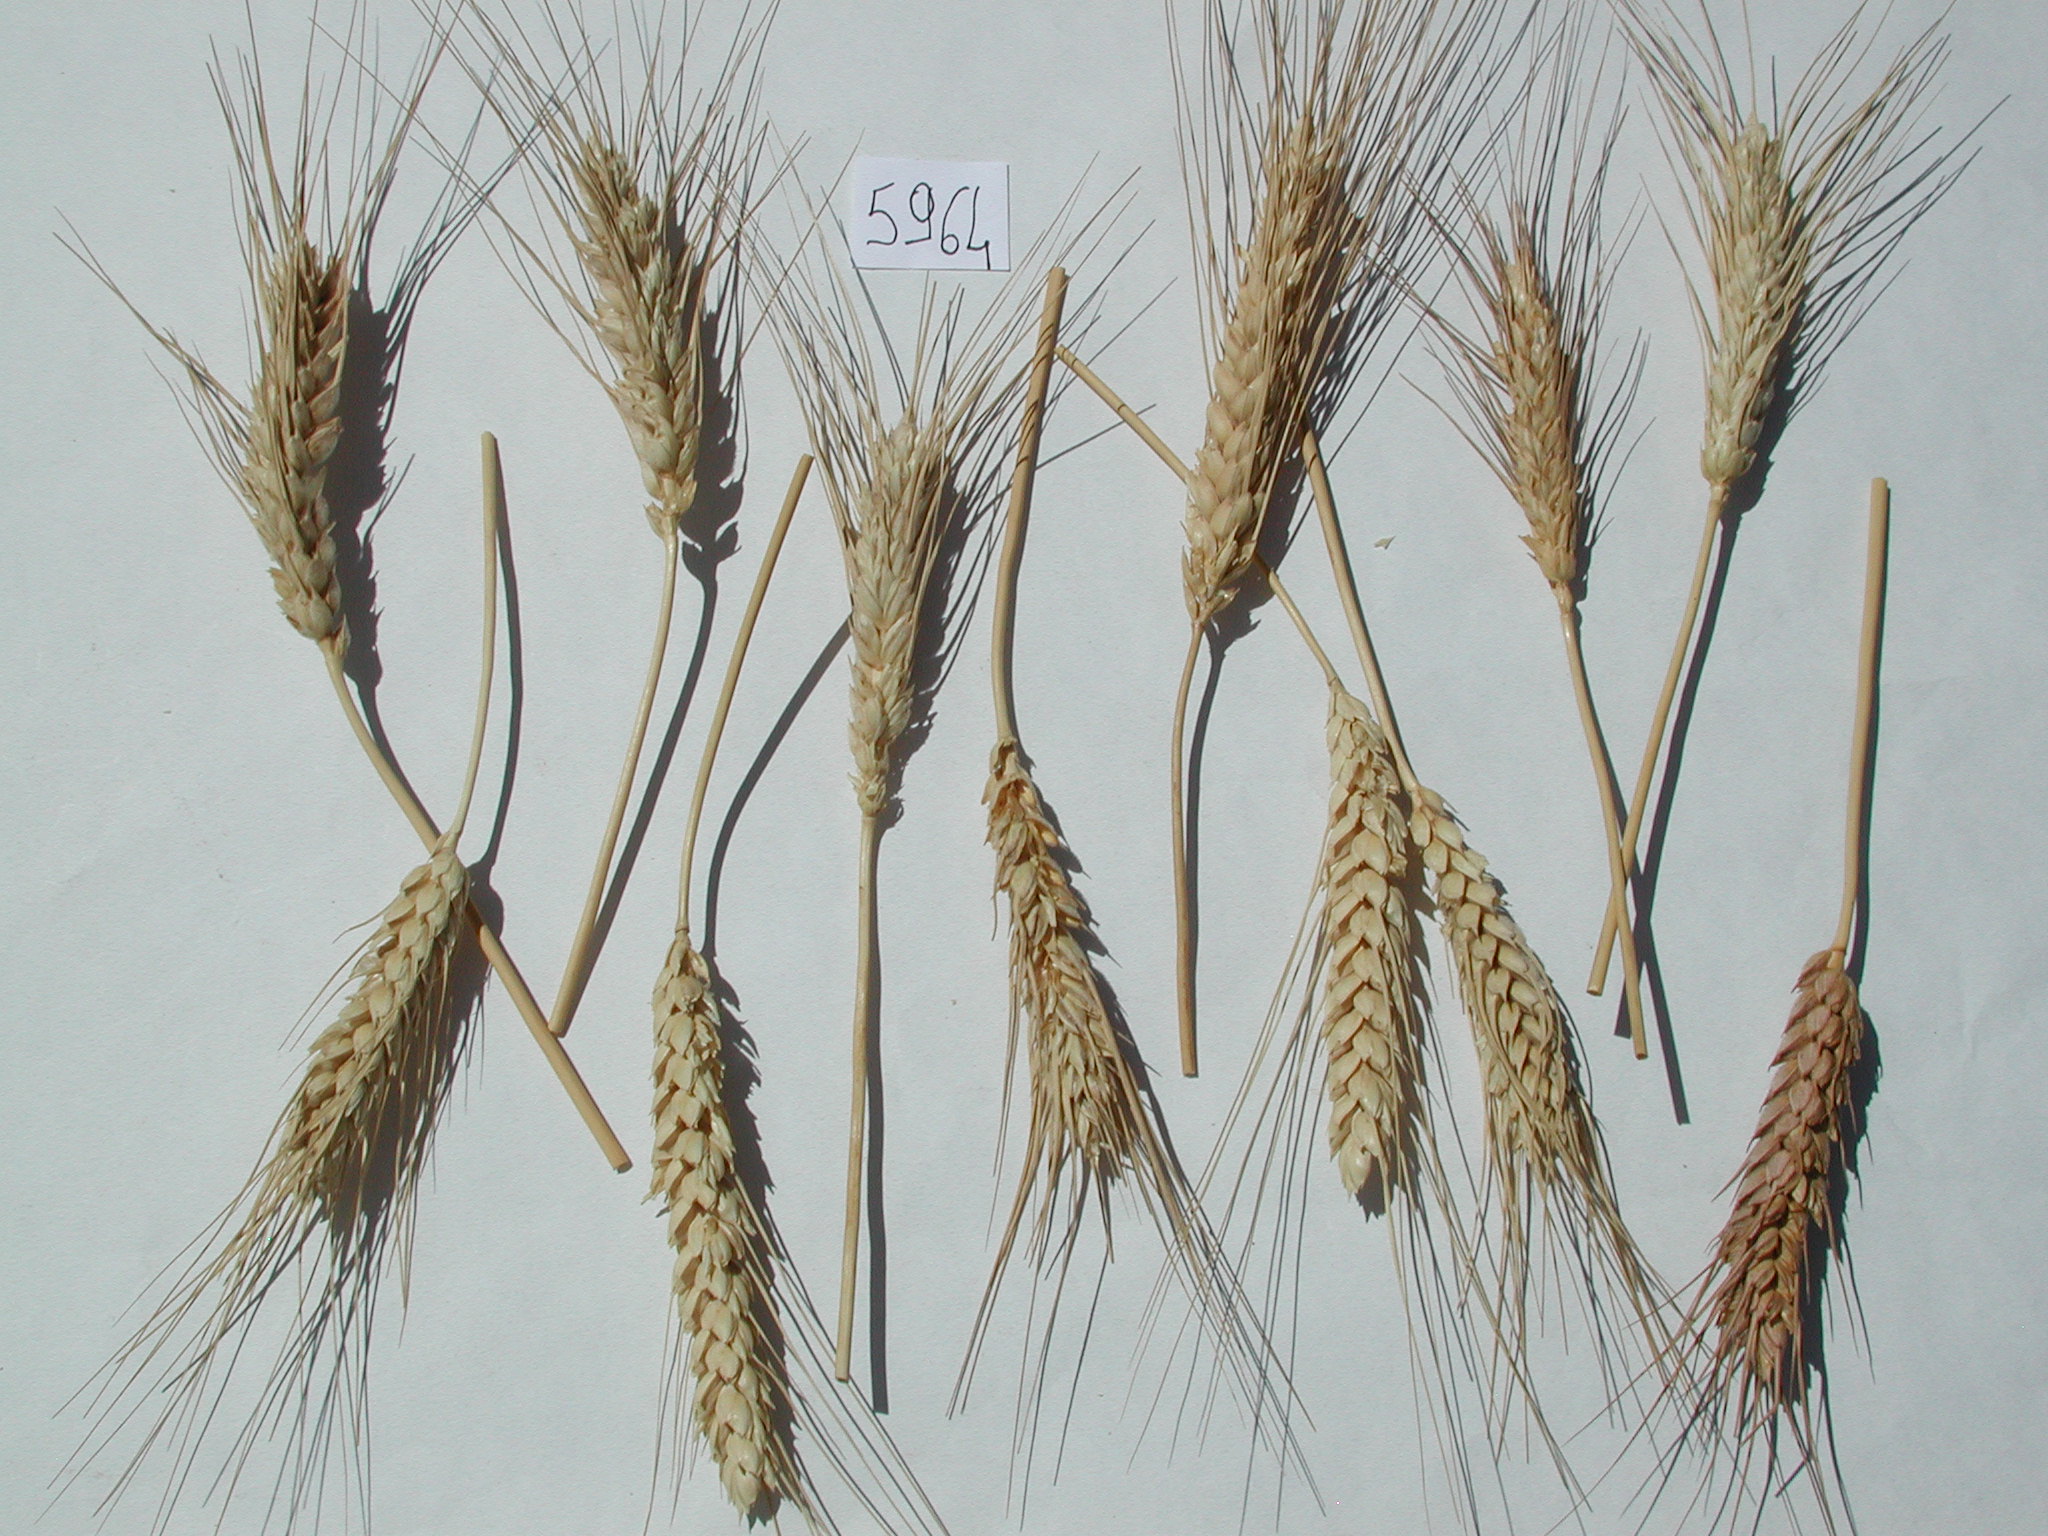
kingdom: Plantae
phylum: Tracheophyta
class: Liliopsida
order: Poales
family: Poaceae
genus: Triticum
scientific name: Triticum turgidum
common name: Wheat
